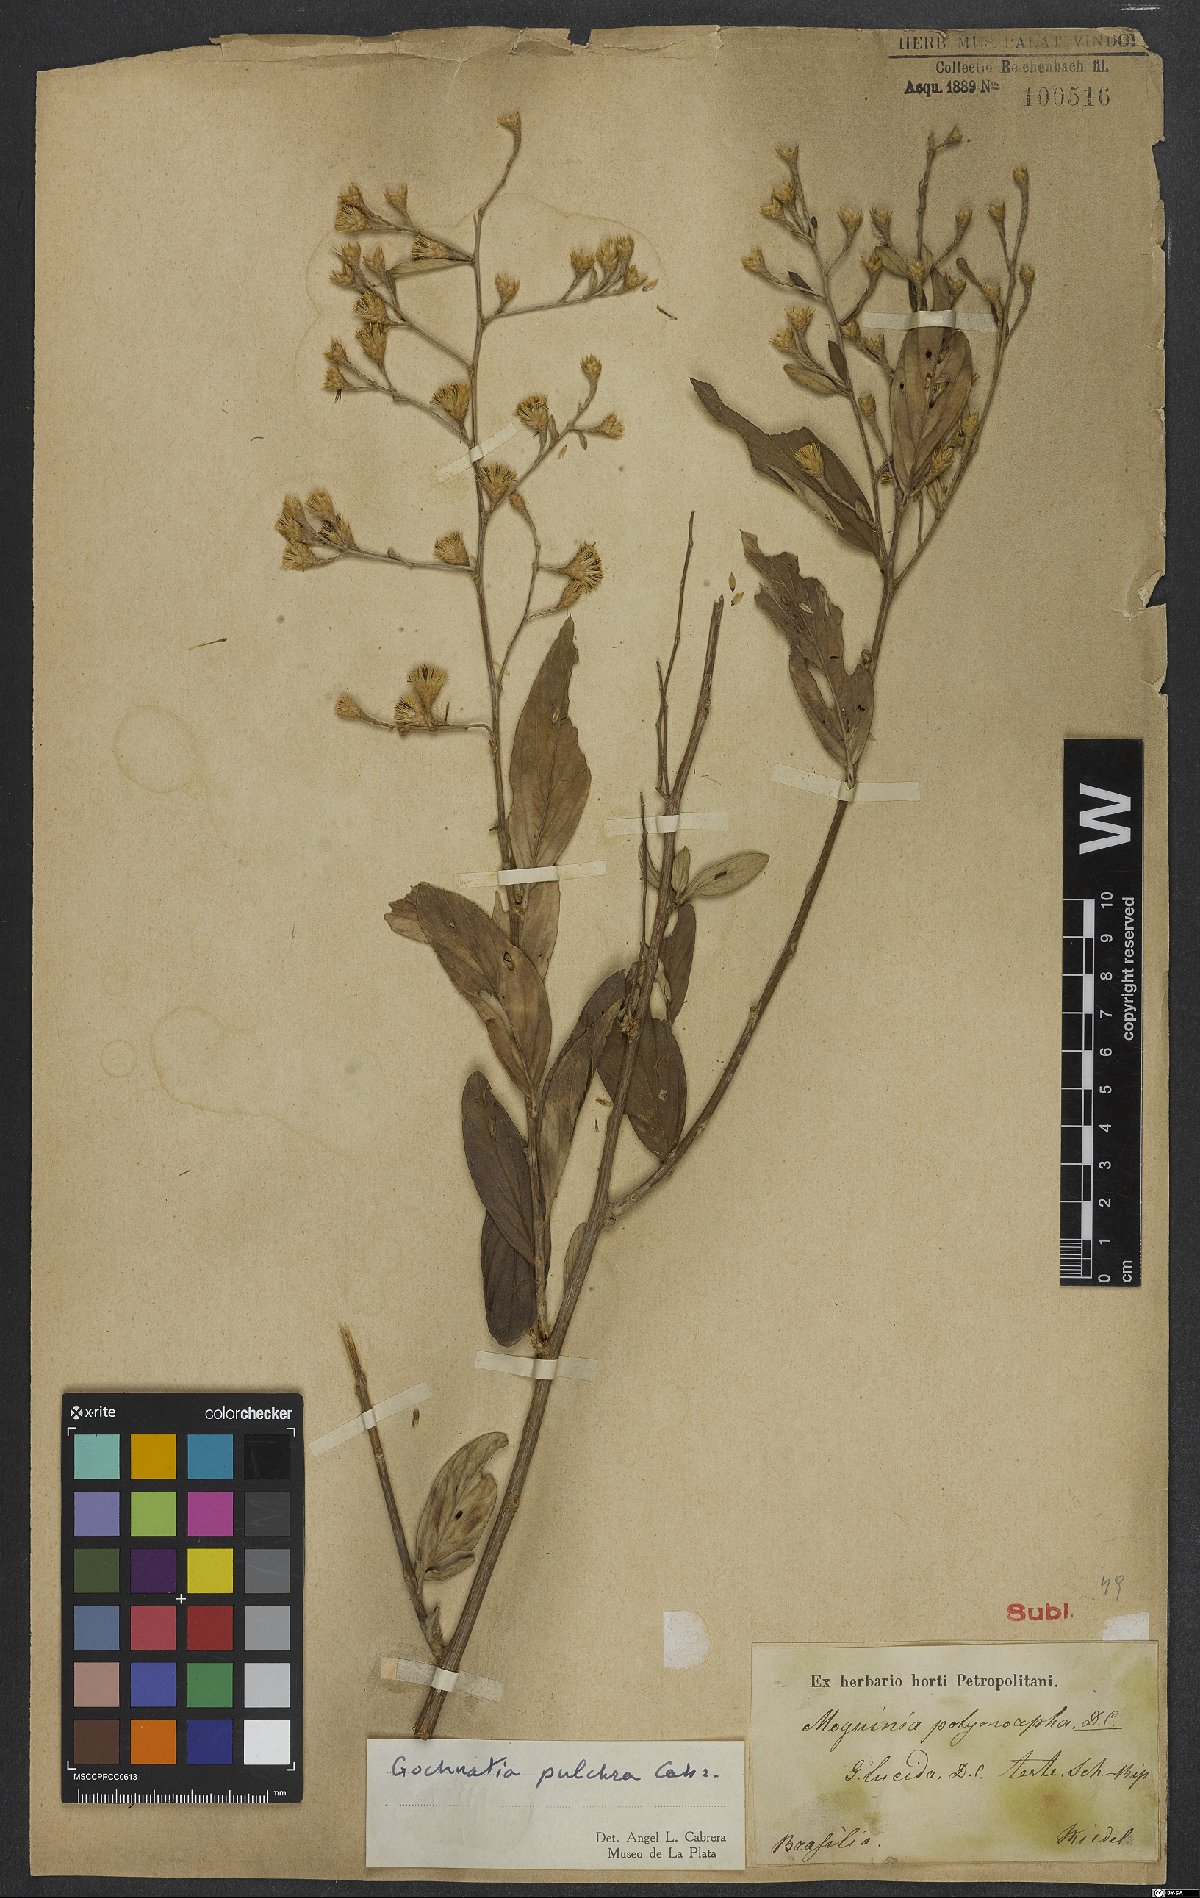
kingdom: Plantae
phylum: Tracheophyta
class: Magnoliopsida
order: Asterales
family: Asteraceae
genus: Moquiniastrum
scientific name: Moquiniastrum pulchrum
